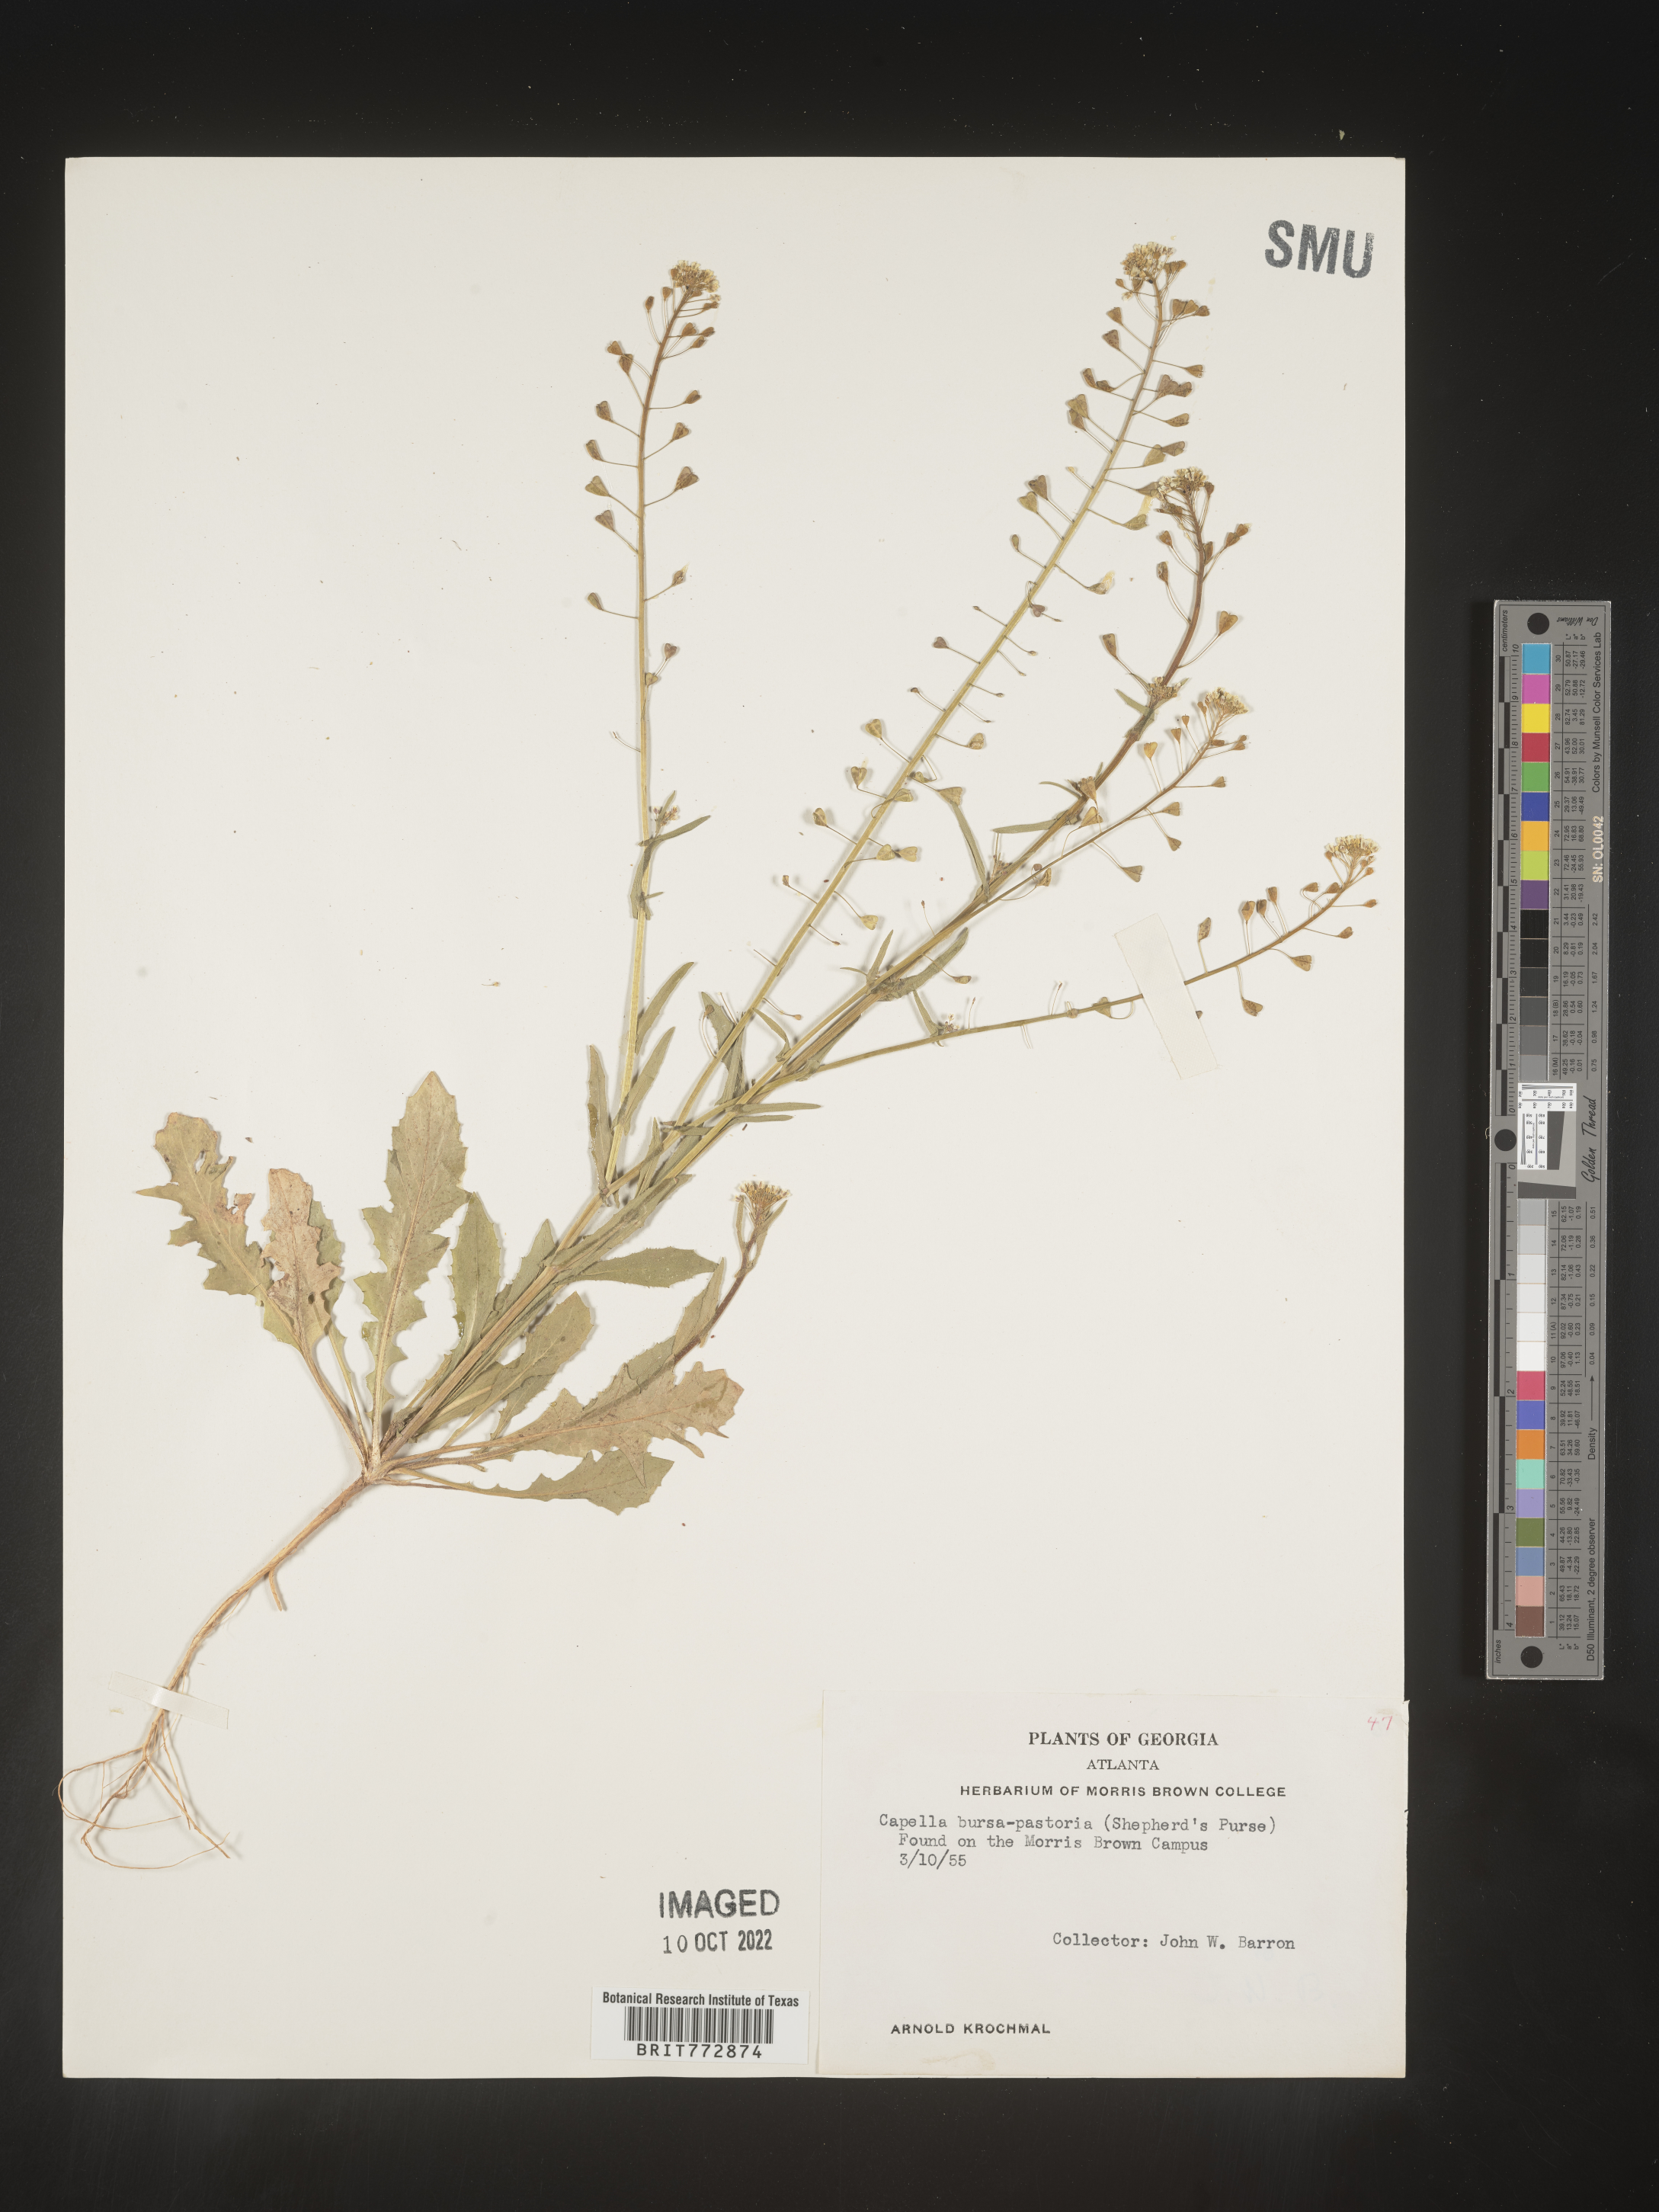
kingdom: Plantae
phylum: Tracheophyta
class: Magnoliopsida
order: Brassicales
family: Brassicaceae
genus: Capsella
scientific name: Capsella bursa-pastoris
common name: Shepherd's purse
